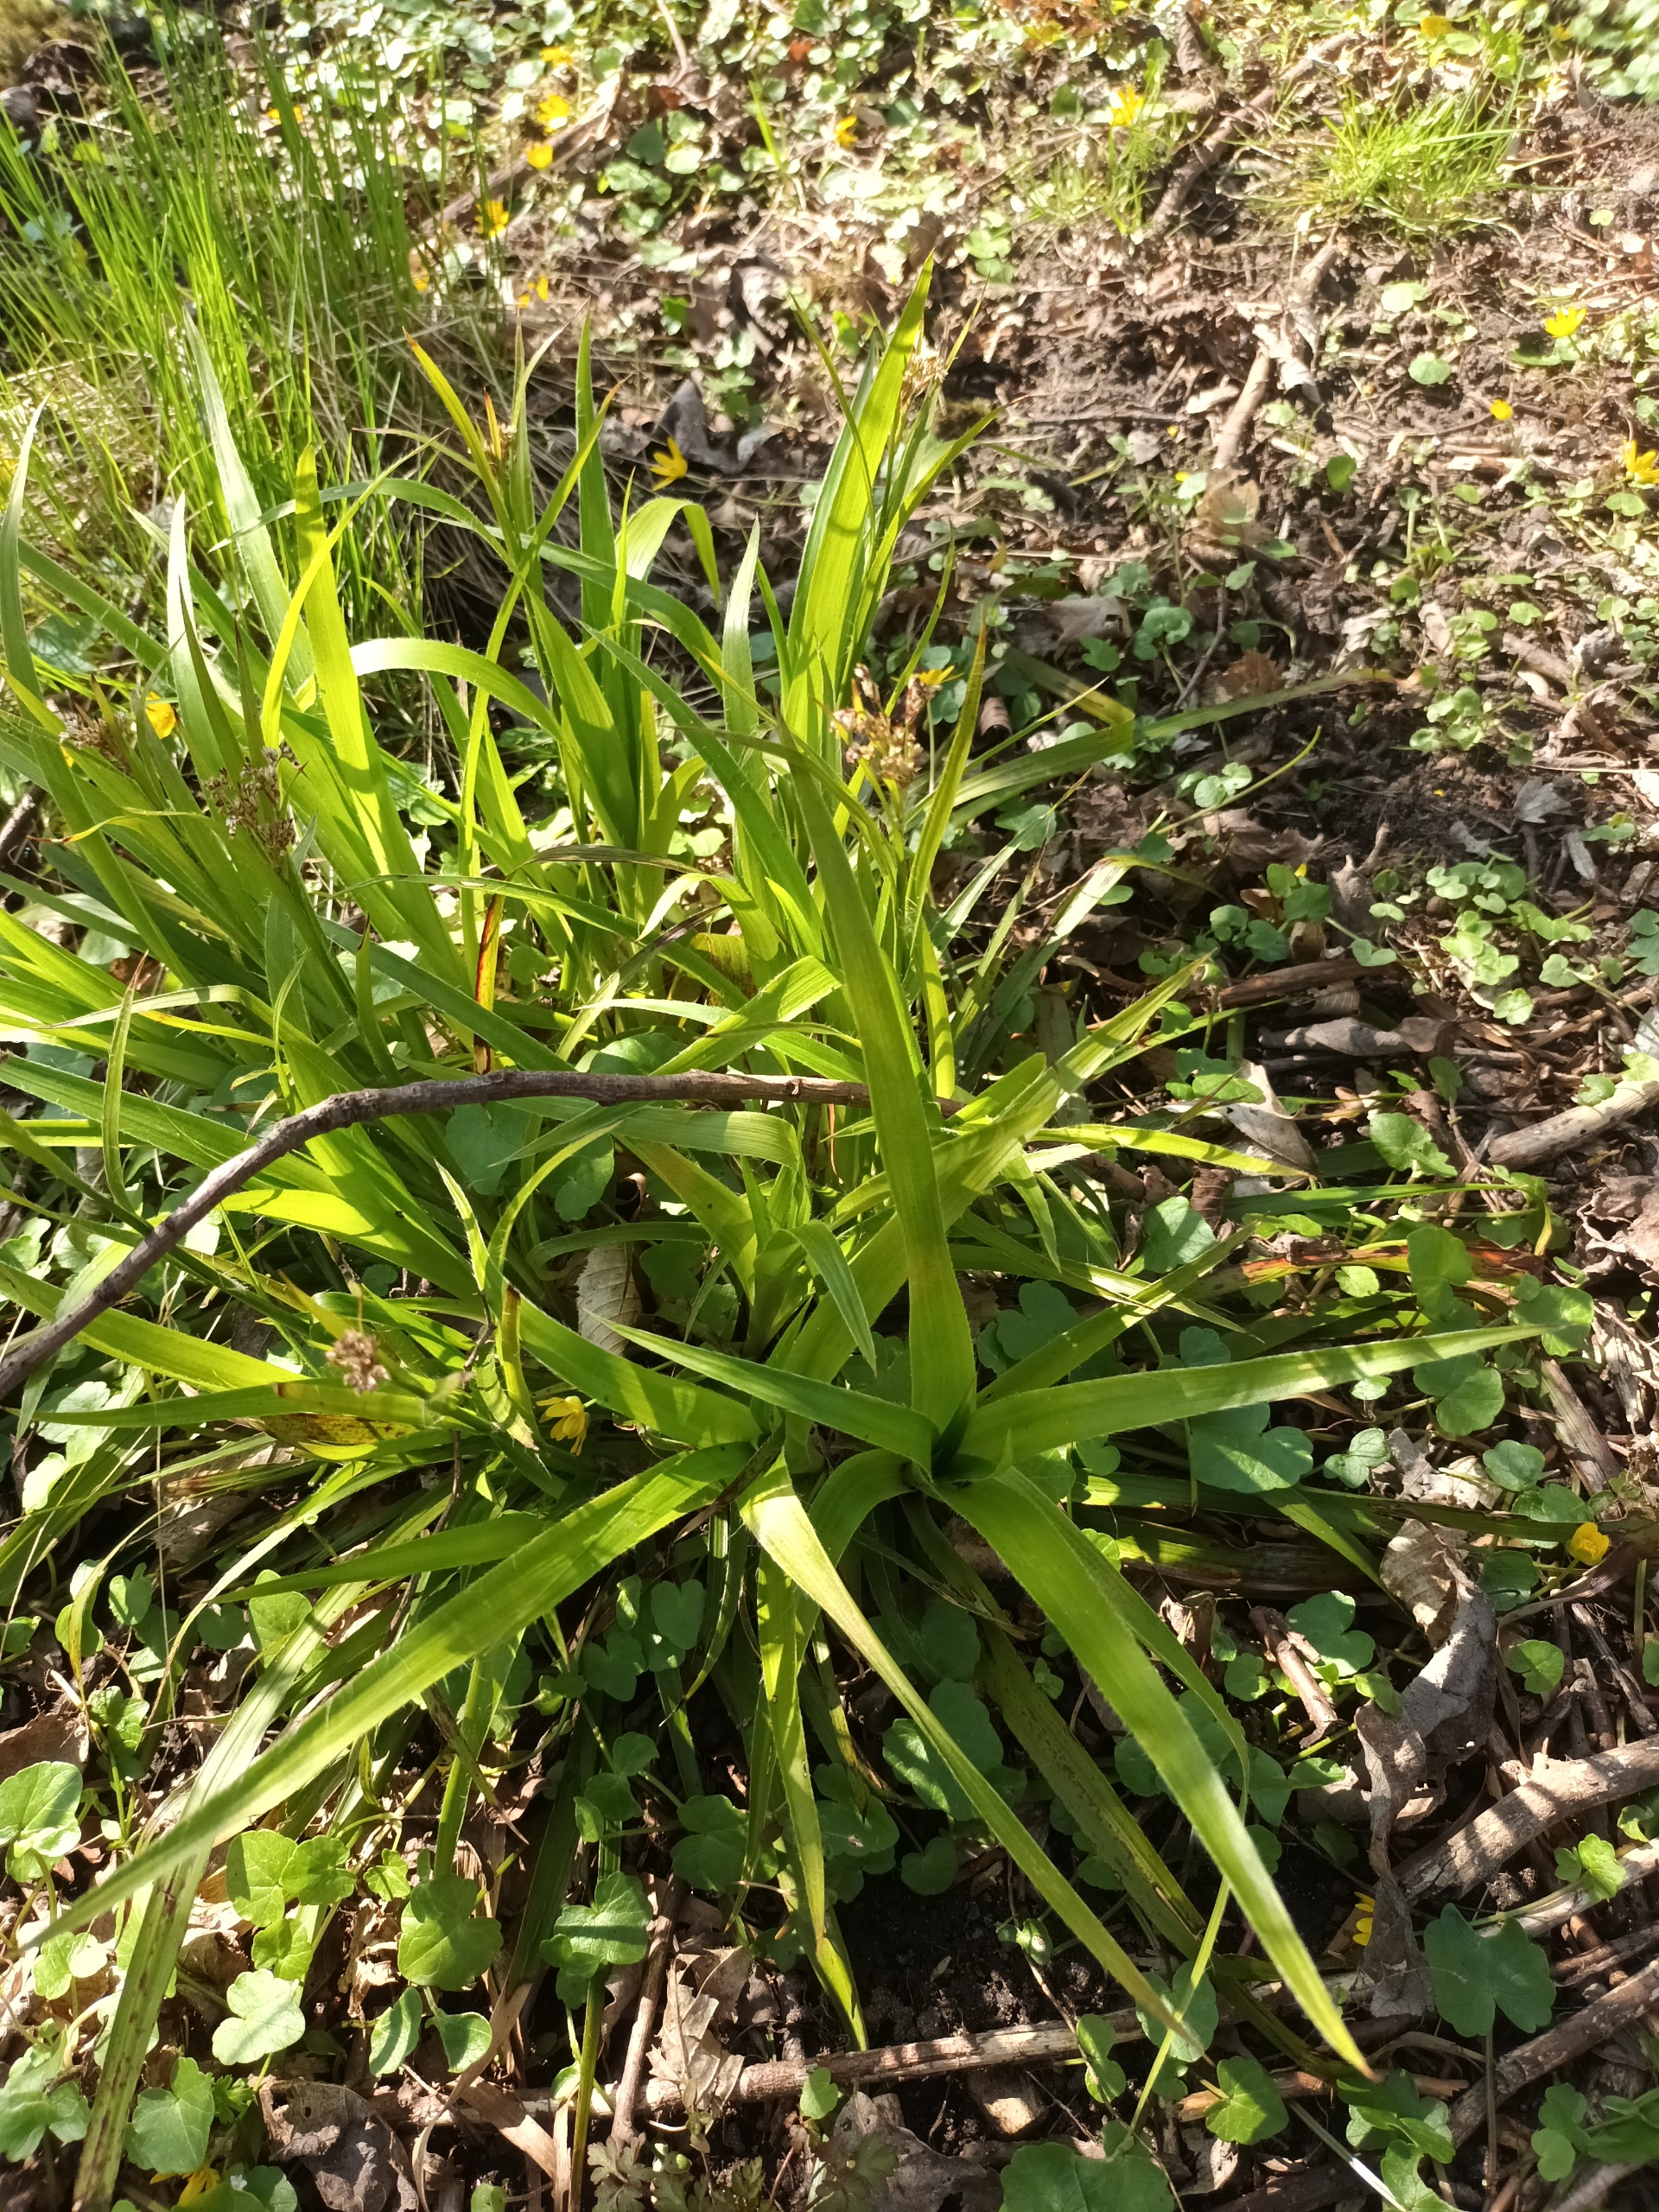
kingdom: Plantae
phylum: Tracheophyta
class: Liliopsida
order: Poales
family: Juncaceae
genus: Luzula
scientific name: Luzula sylvatica
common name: Stor frytle
